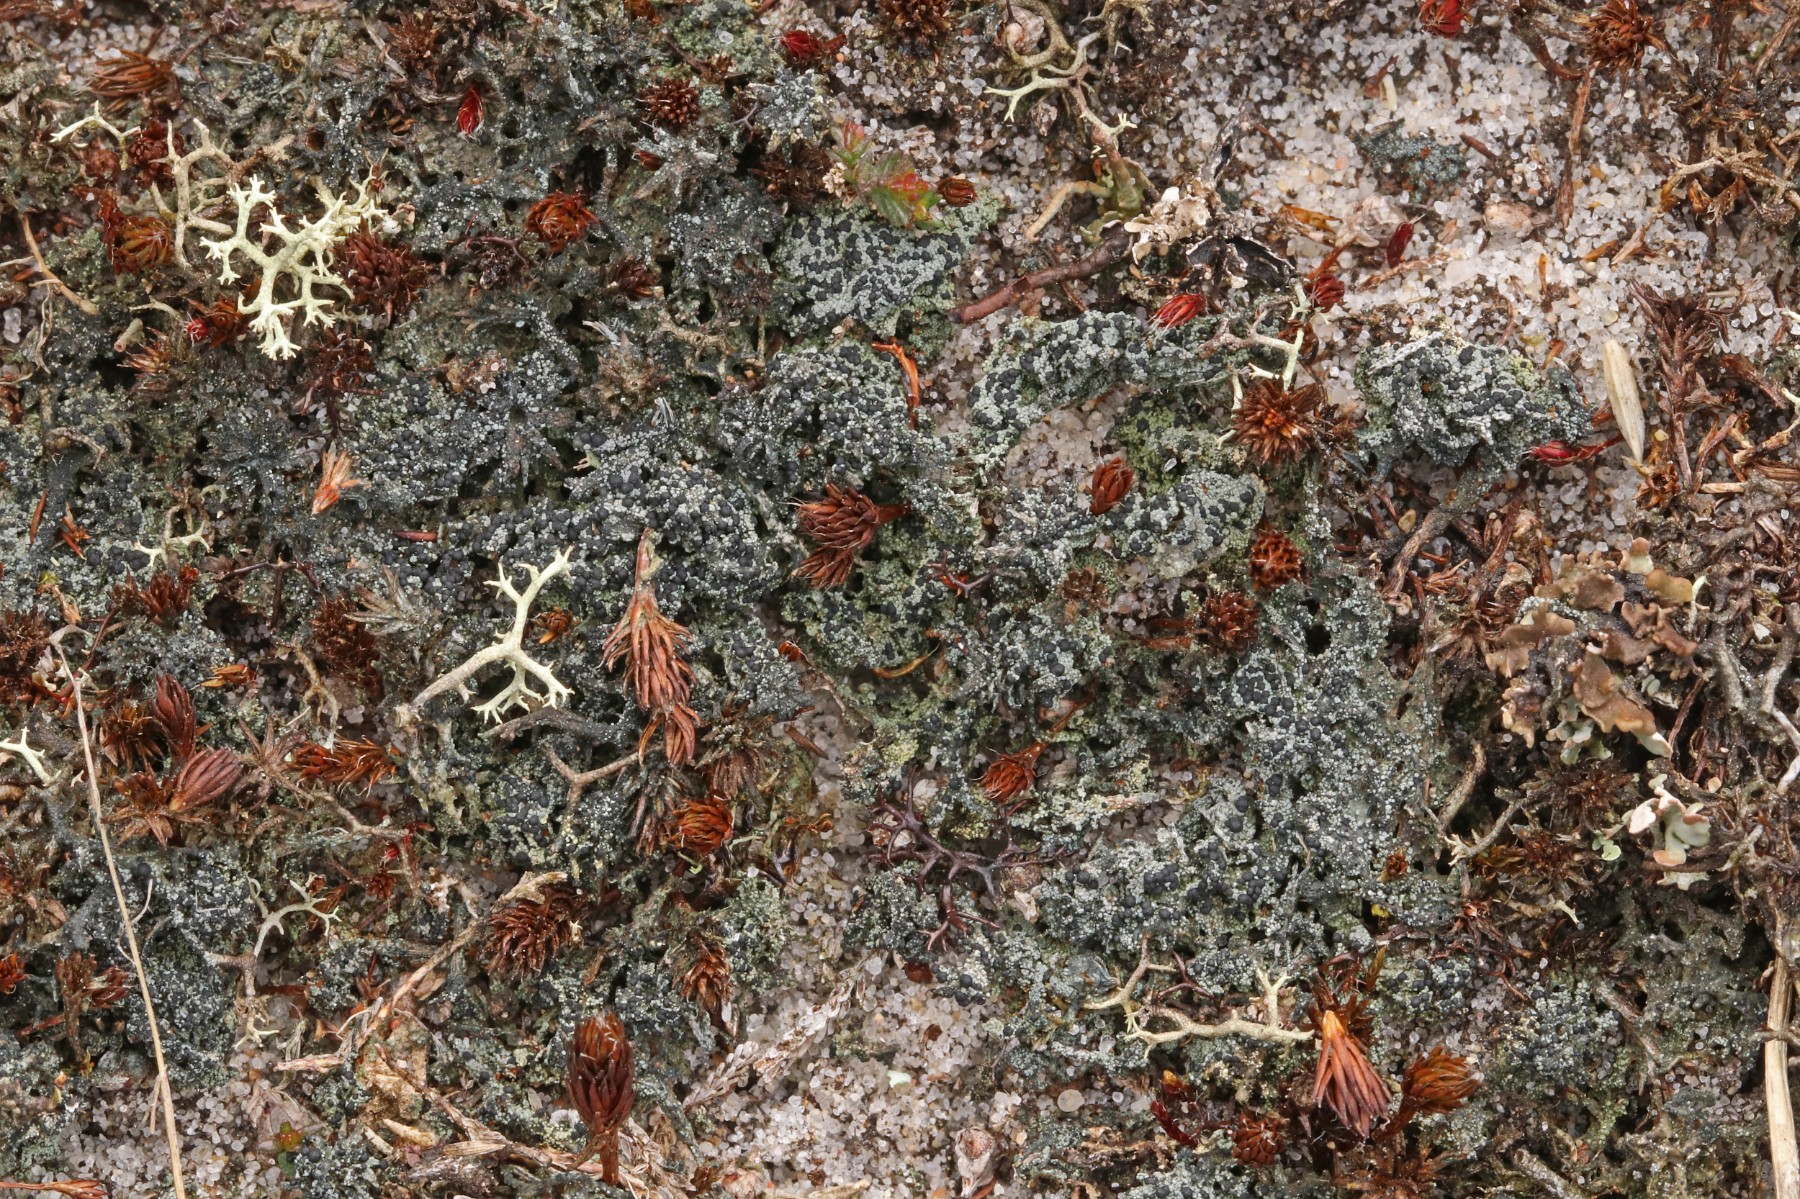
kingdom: Fungi
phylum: Ascomycota
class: Lecanoromycetes
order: Lecanorales
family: Byssolomataceae
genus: Micarea
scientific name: Micarea lignaria
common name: tørve-knaplav
